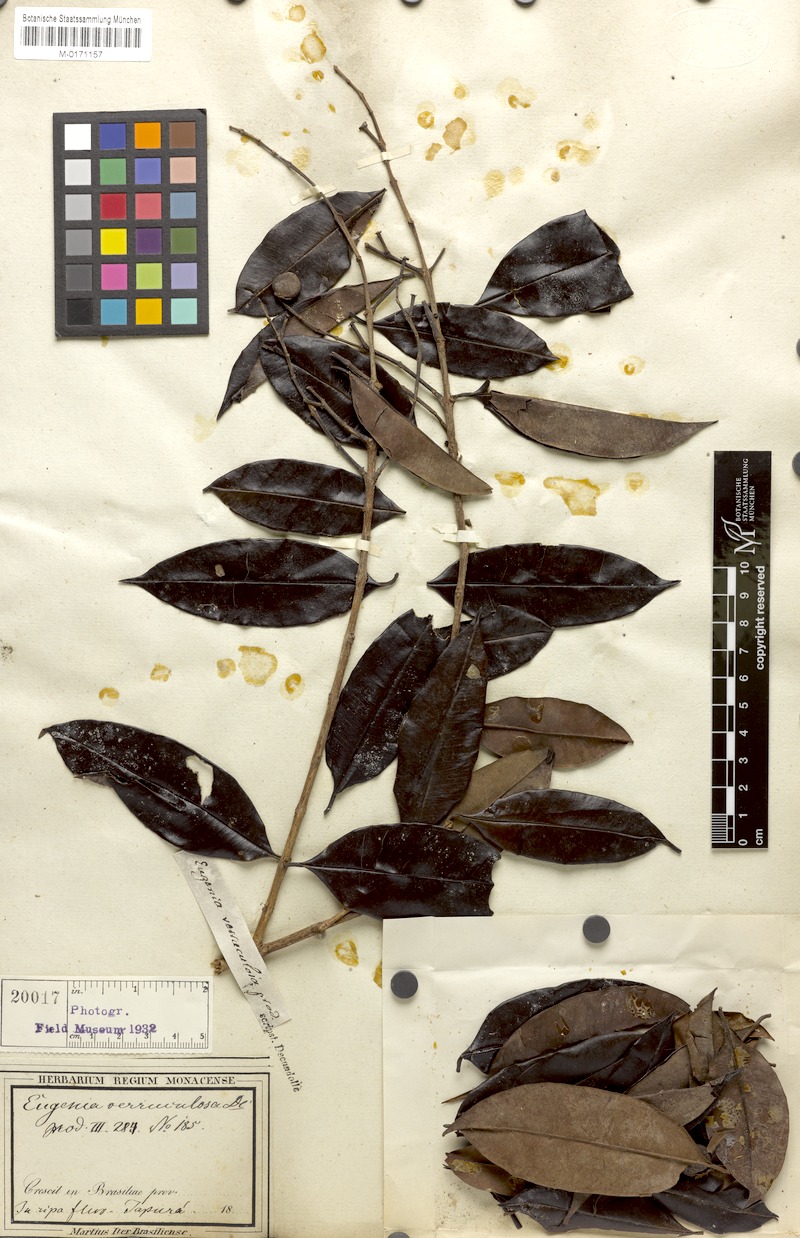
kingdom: Plantae
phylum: Tracheophyta
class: Magnoliopsida
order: Myrtales
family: Myrtaceae
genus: Eugenia
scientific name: Eugenia polystachya
